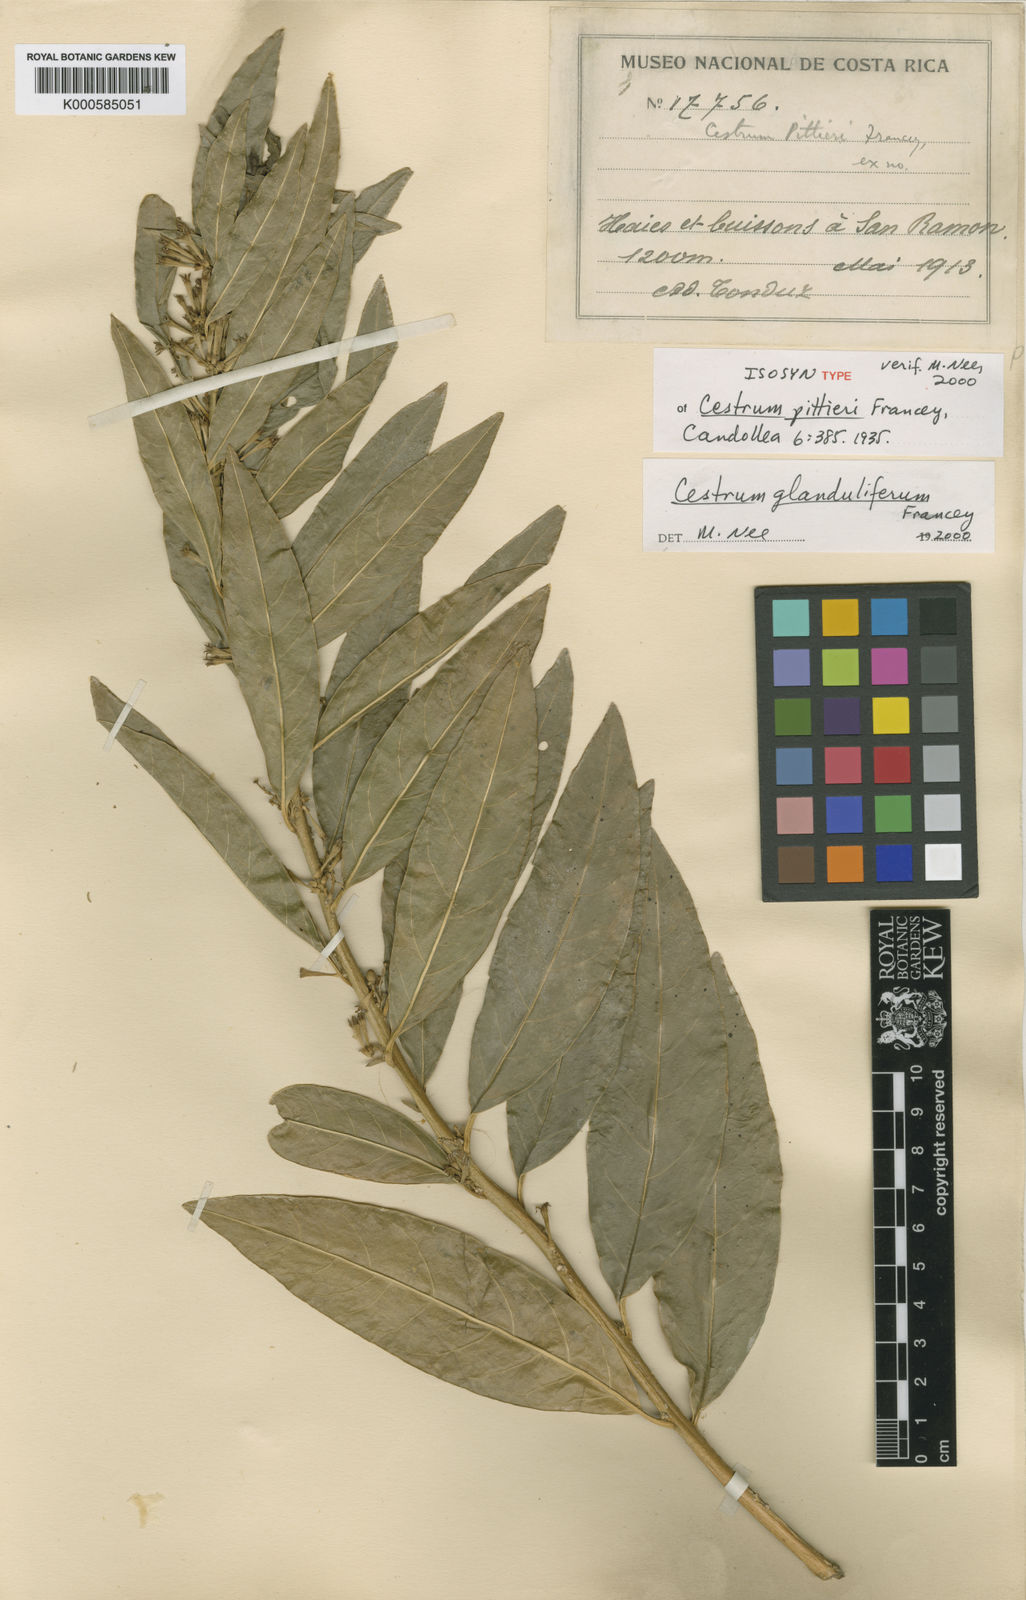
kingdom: Plantae
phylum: Tracheophyta
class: Magnoliopsida
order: Solanales
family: Solanaceae
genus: Cestrum
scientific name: Cestrum glanduliferum
